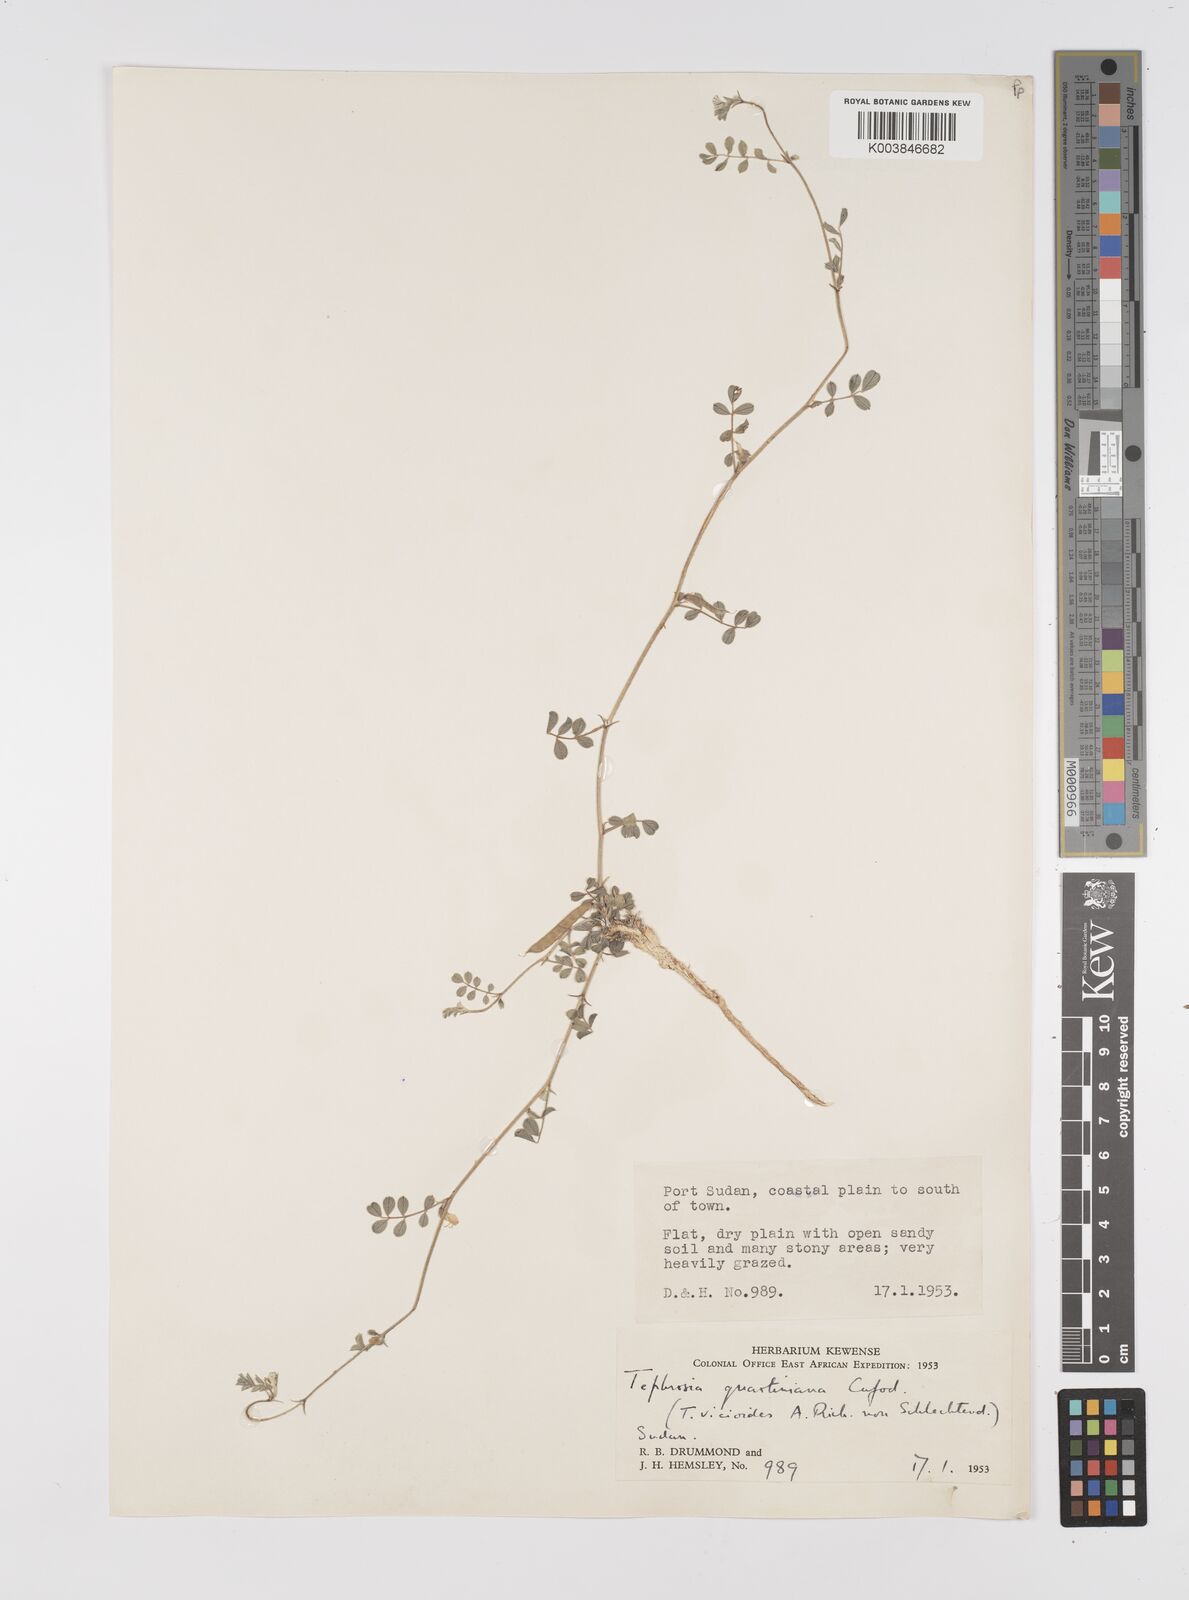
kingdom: Plantae
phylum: Tracheophyta
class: Magnoliopsida
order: Fabales
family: Fabaceae
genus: Tephrosia
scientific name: Tephrosia uniflora
